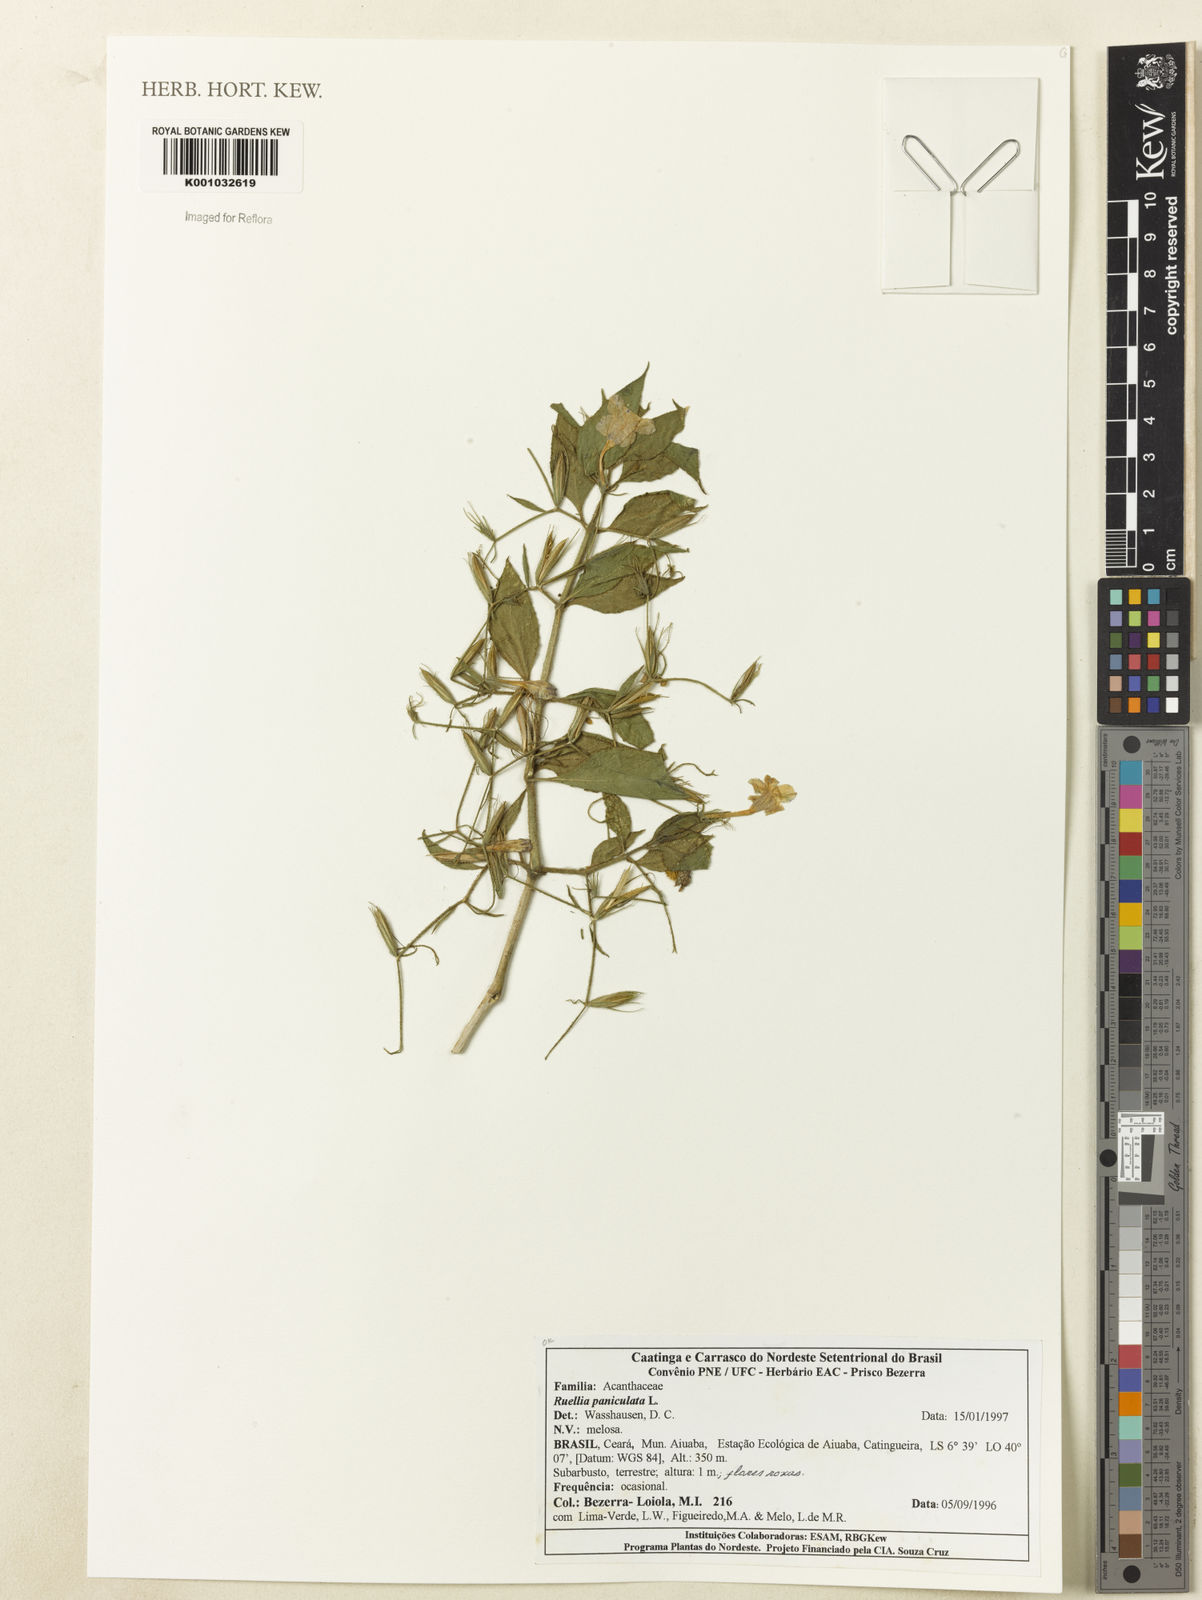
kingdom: Plantae
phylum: Tracheophyta
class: Magnoliopsida
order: Lamiales
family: Acanthaceae
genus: Ruellia
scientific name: Ruellia paniculata
